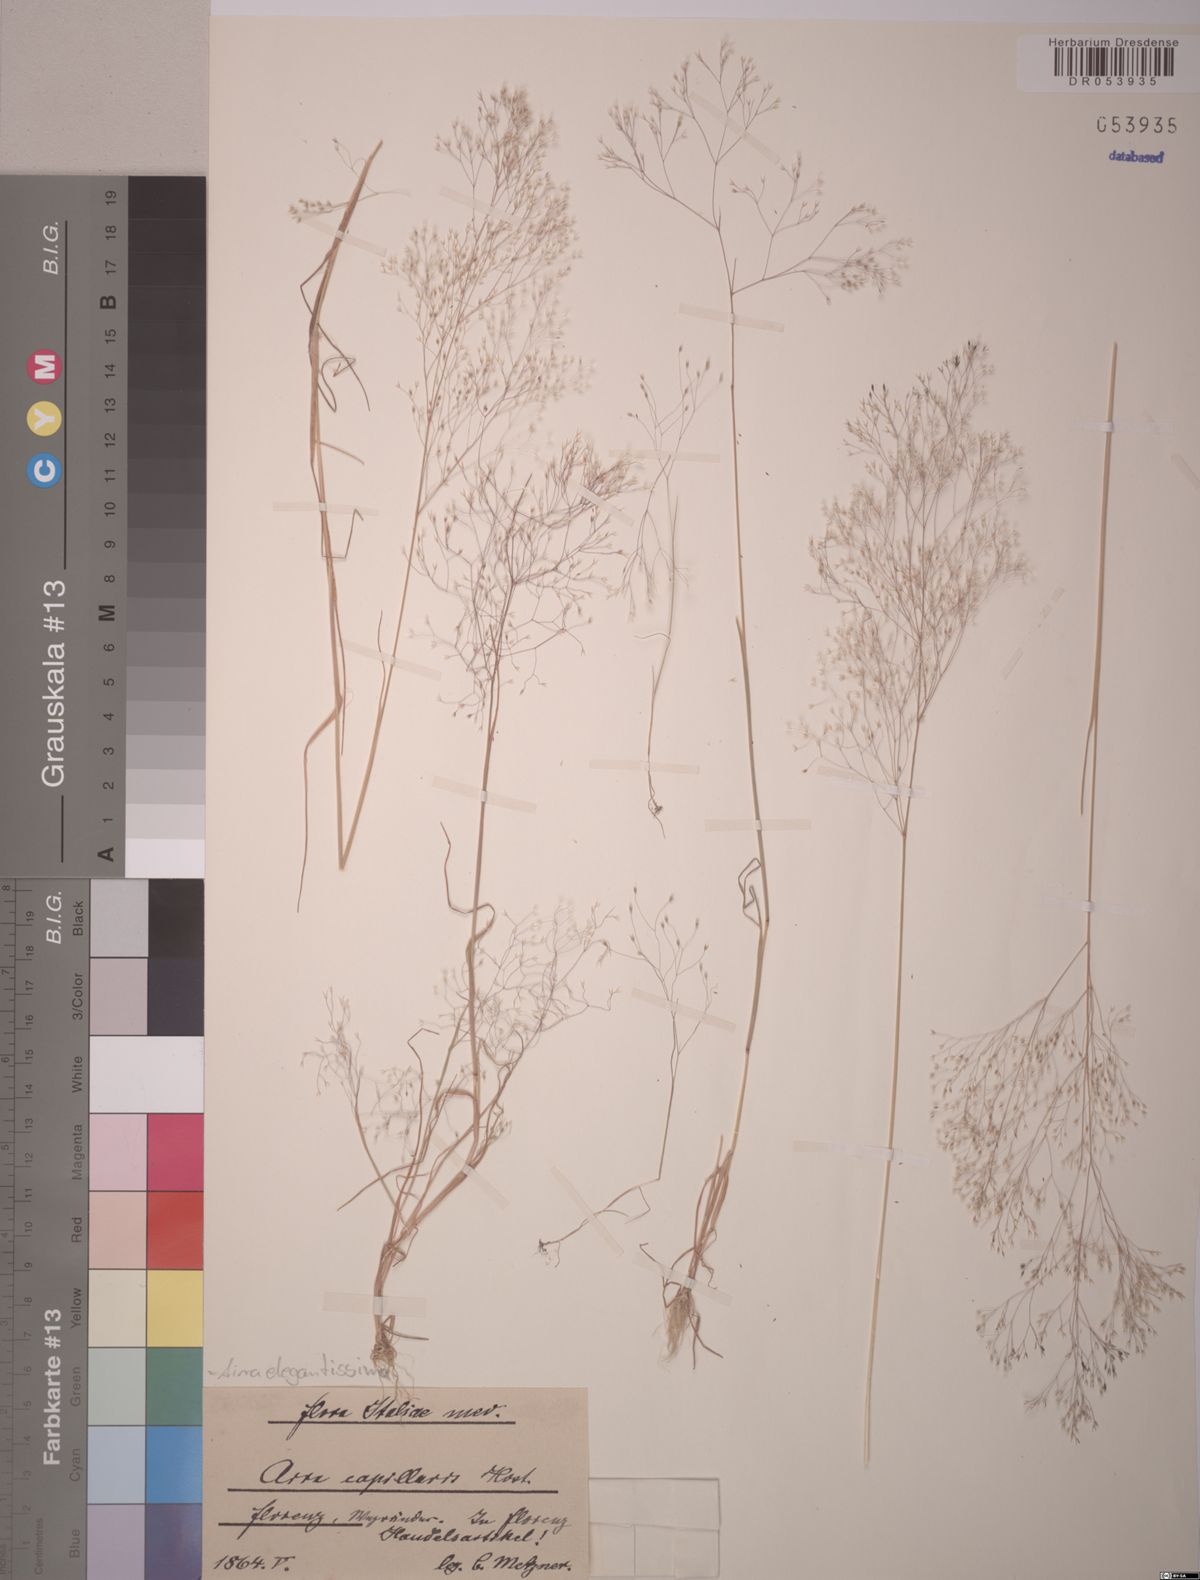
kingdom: Plantae
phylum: Tracheophyta
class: Liliopsida
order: Poales
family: Poaceae
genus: Aira
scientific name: Aira elegans
